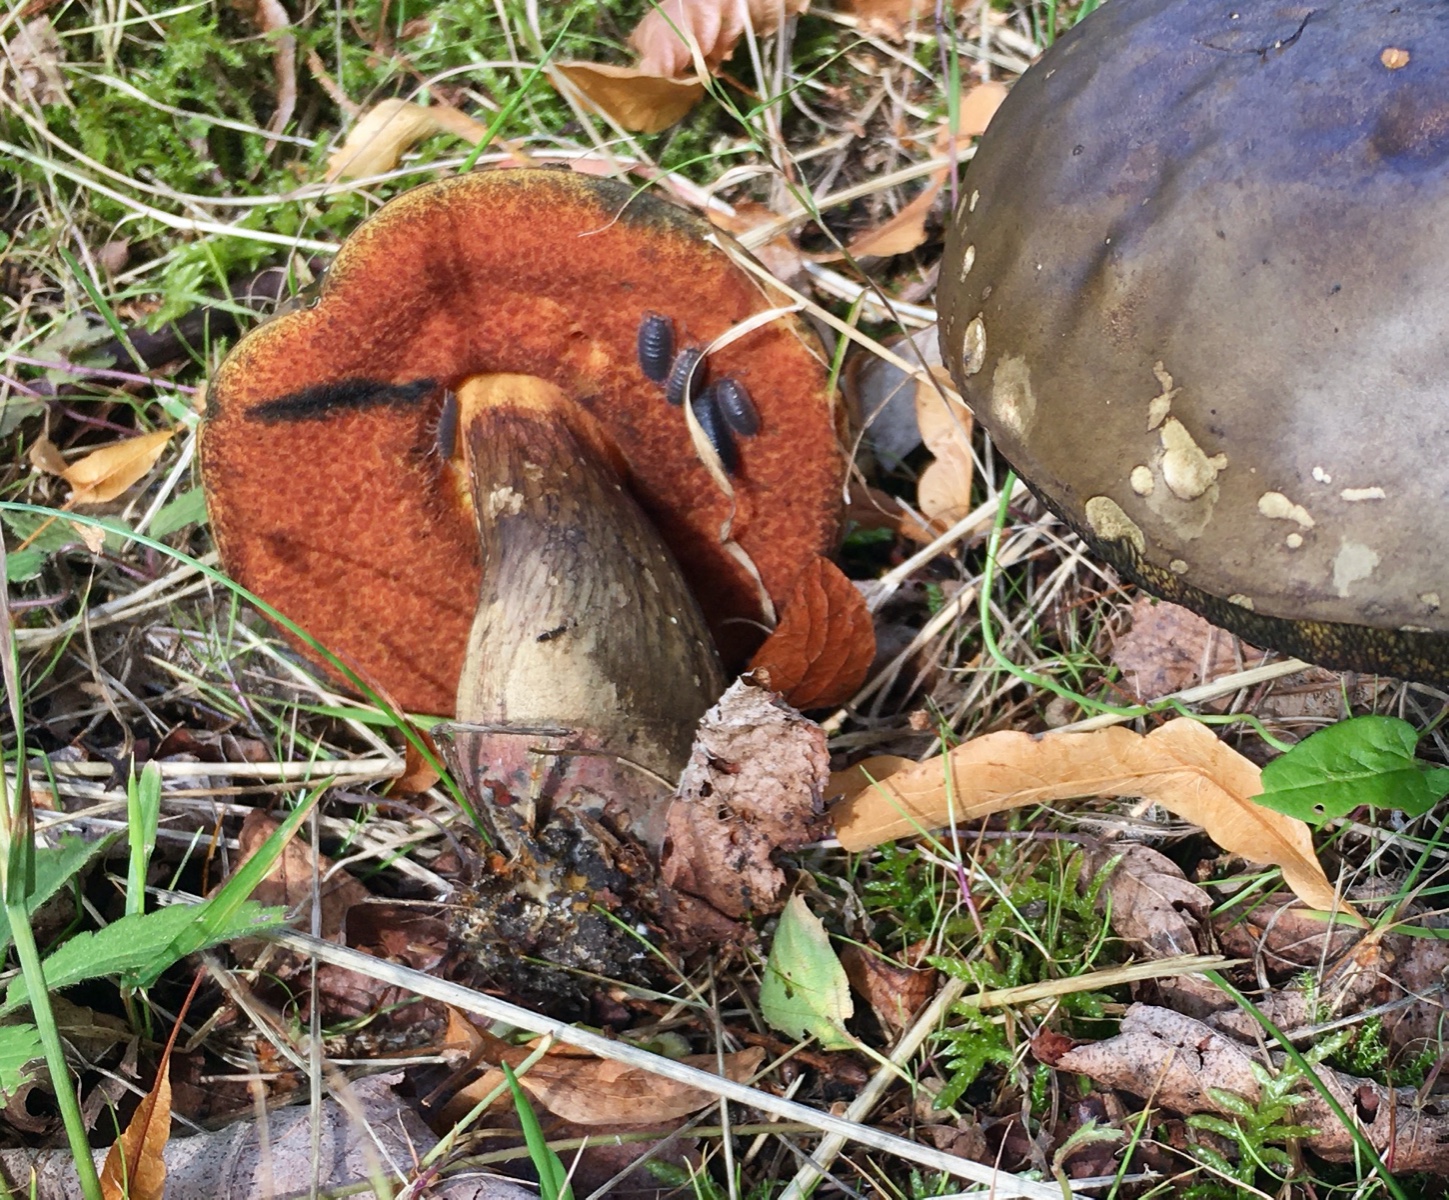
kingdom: Fungi
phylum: Basidiomycota
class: Agaricomycetes
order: Boletales
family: Boletaceae
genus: Suillellus
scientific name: Suillellus luridus
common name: netstokket indigorørhat
